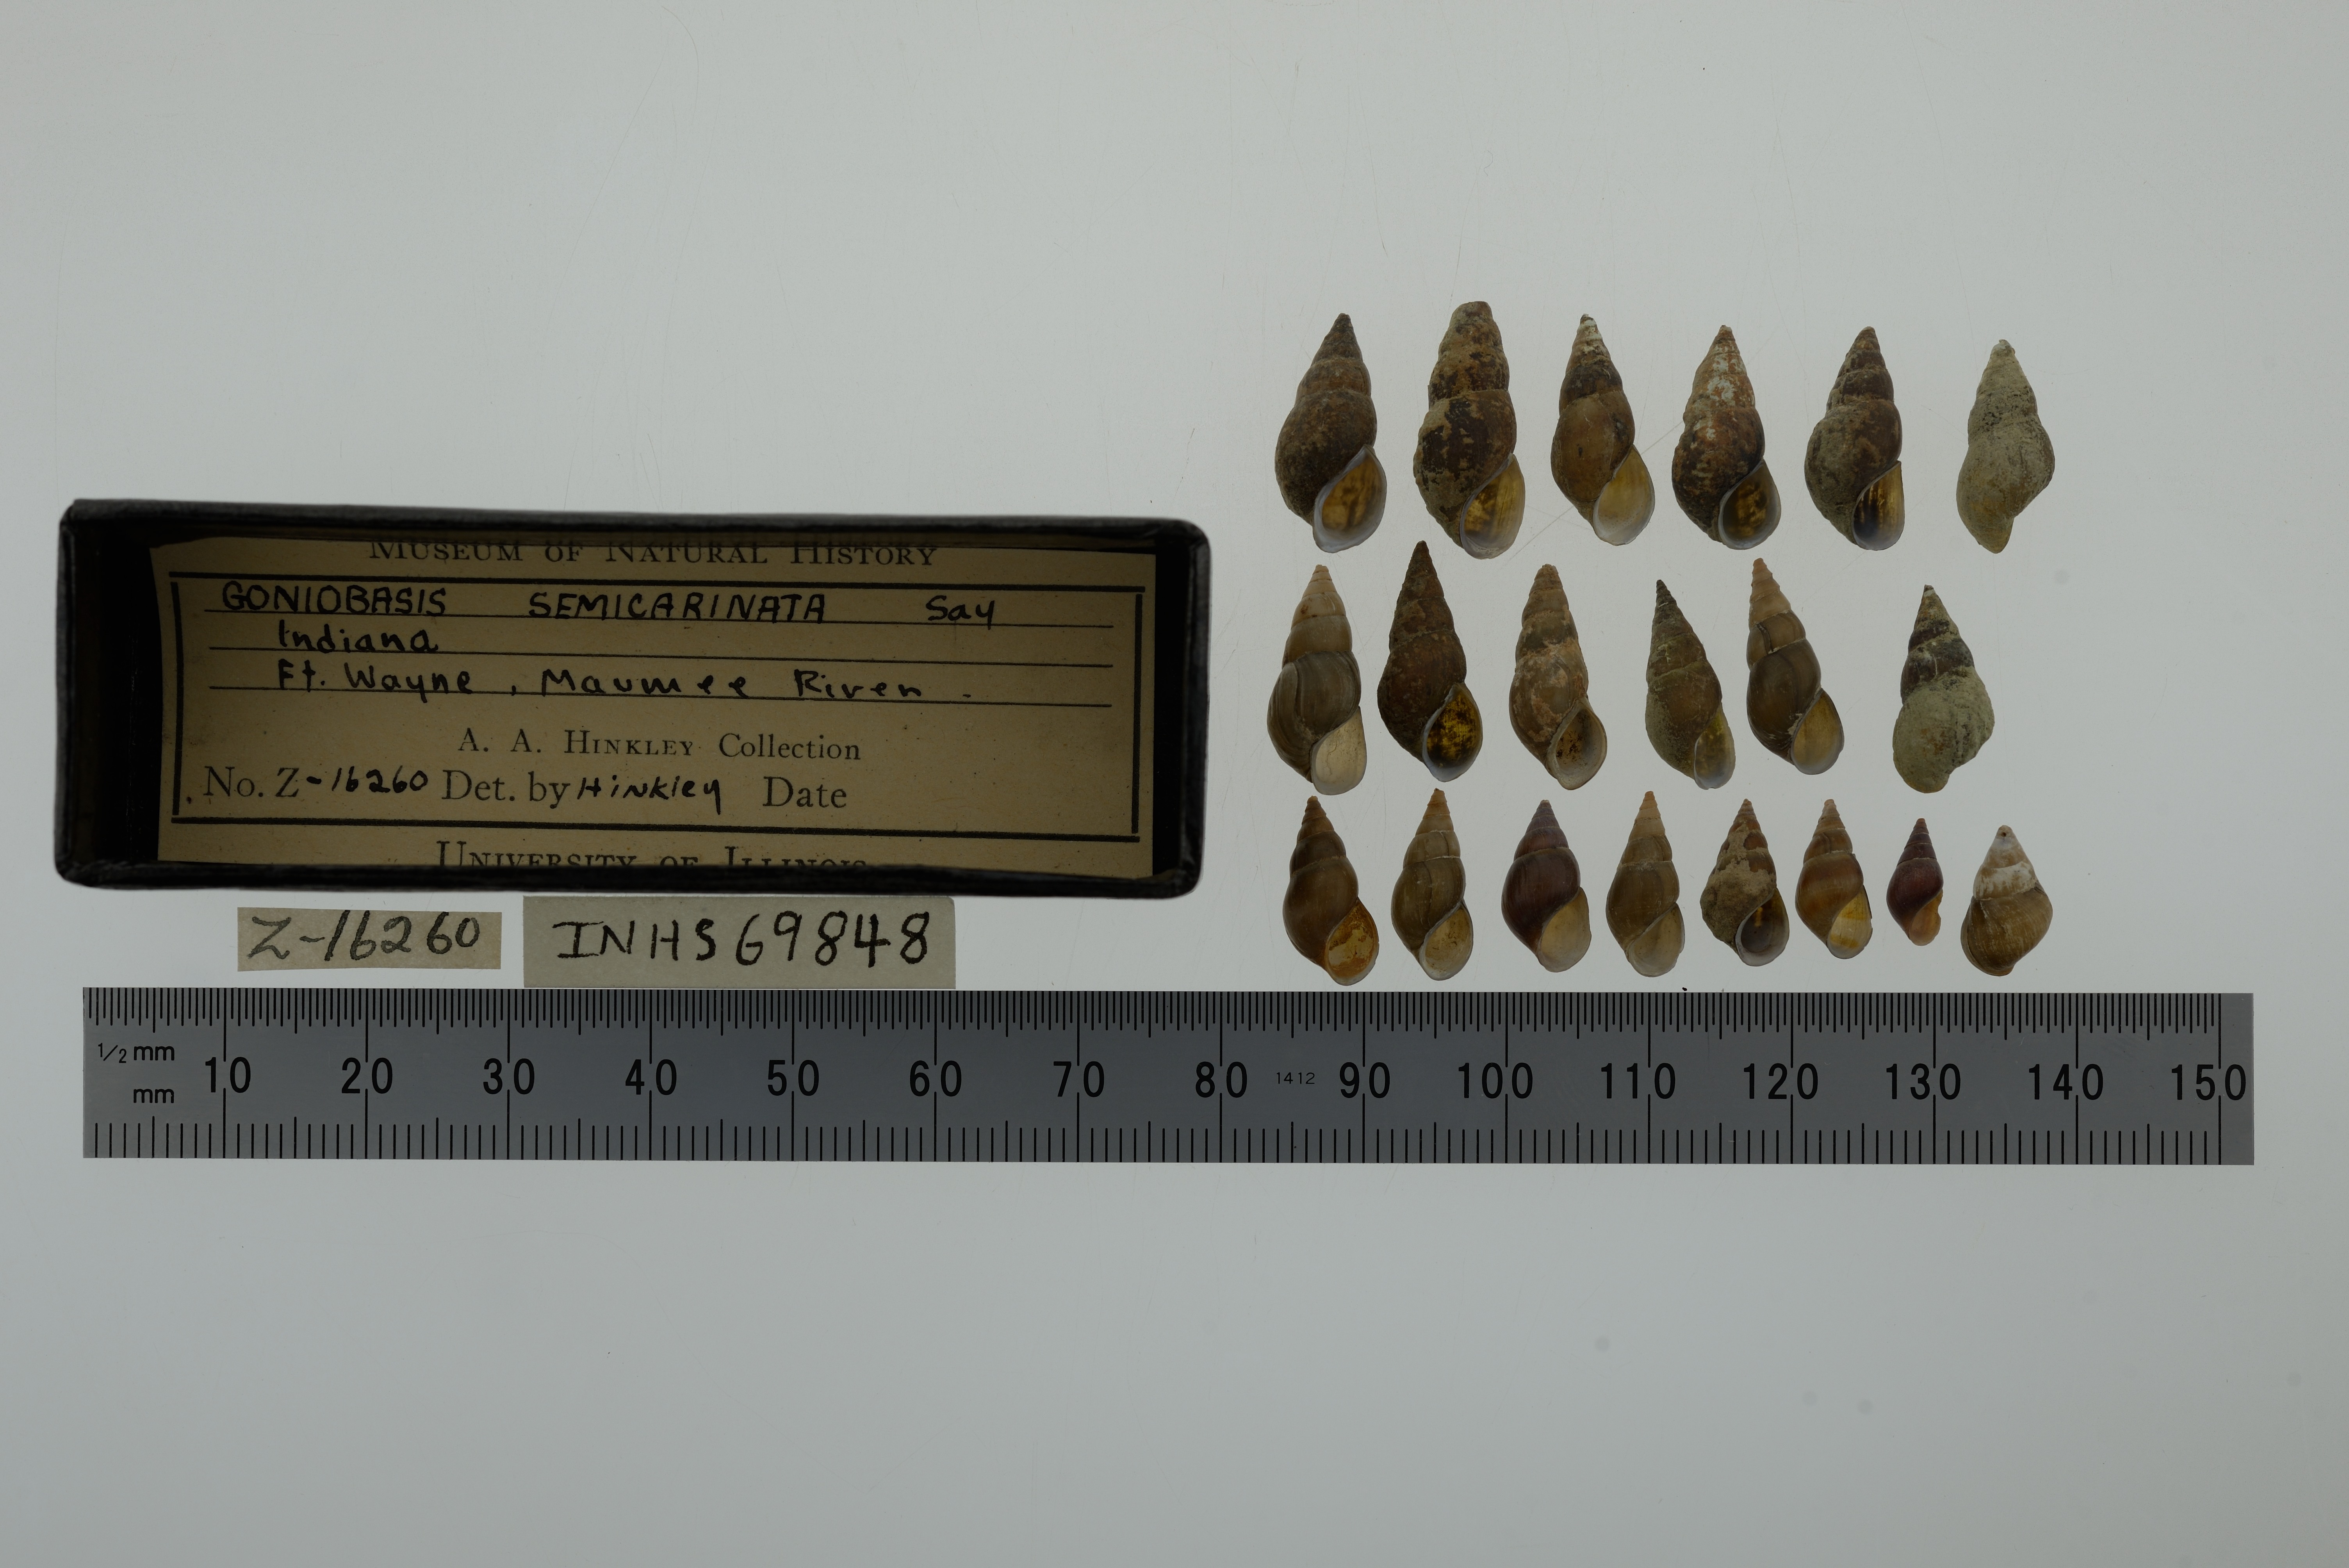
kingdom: Animalia
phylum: Mollusca
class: Gastropoda
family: Pleuroceridae
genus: Elimia
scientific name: Elimia semicarinata
